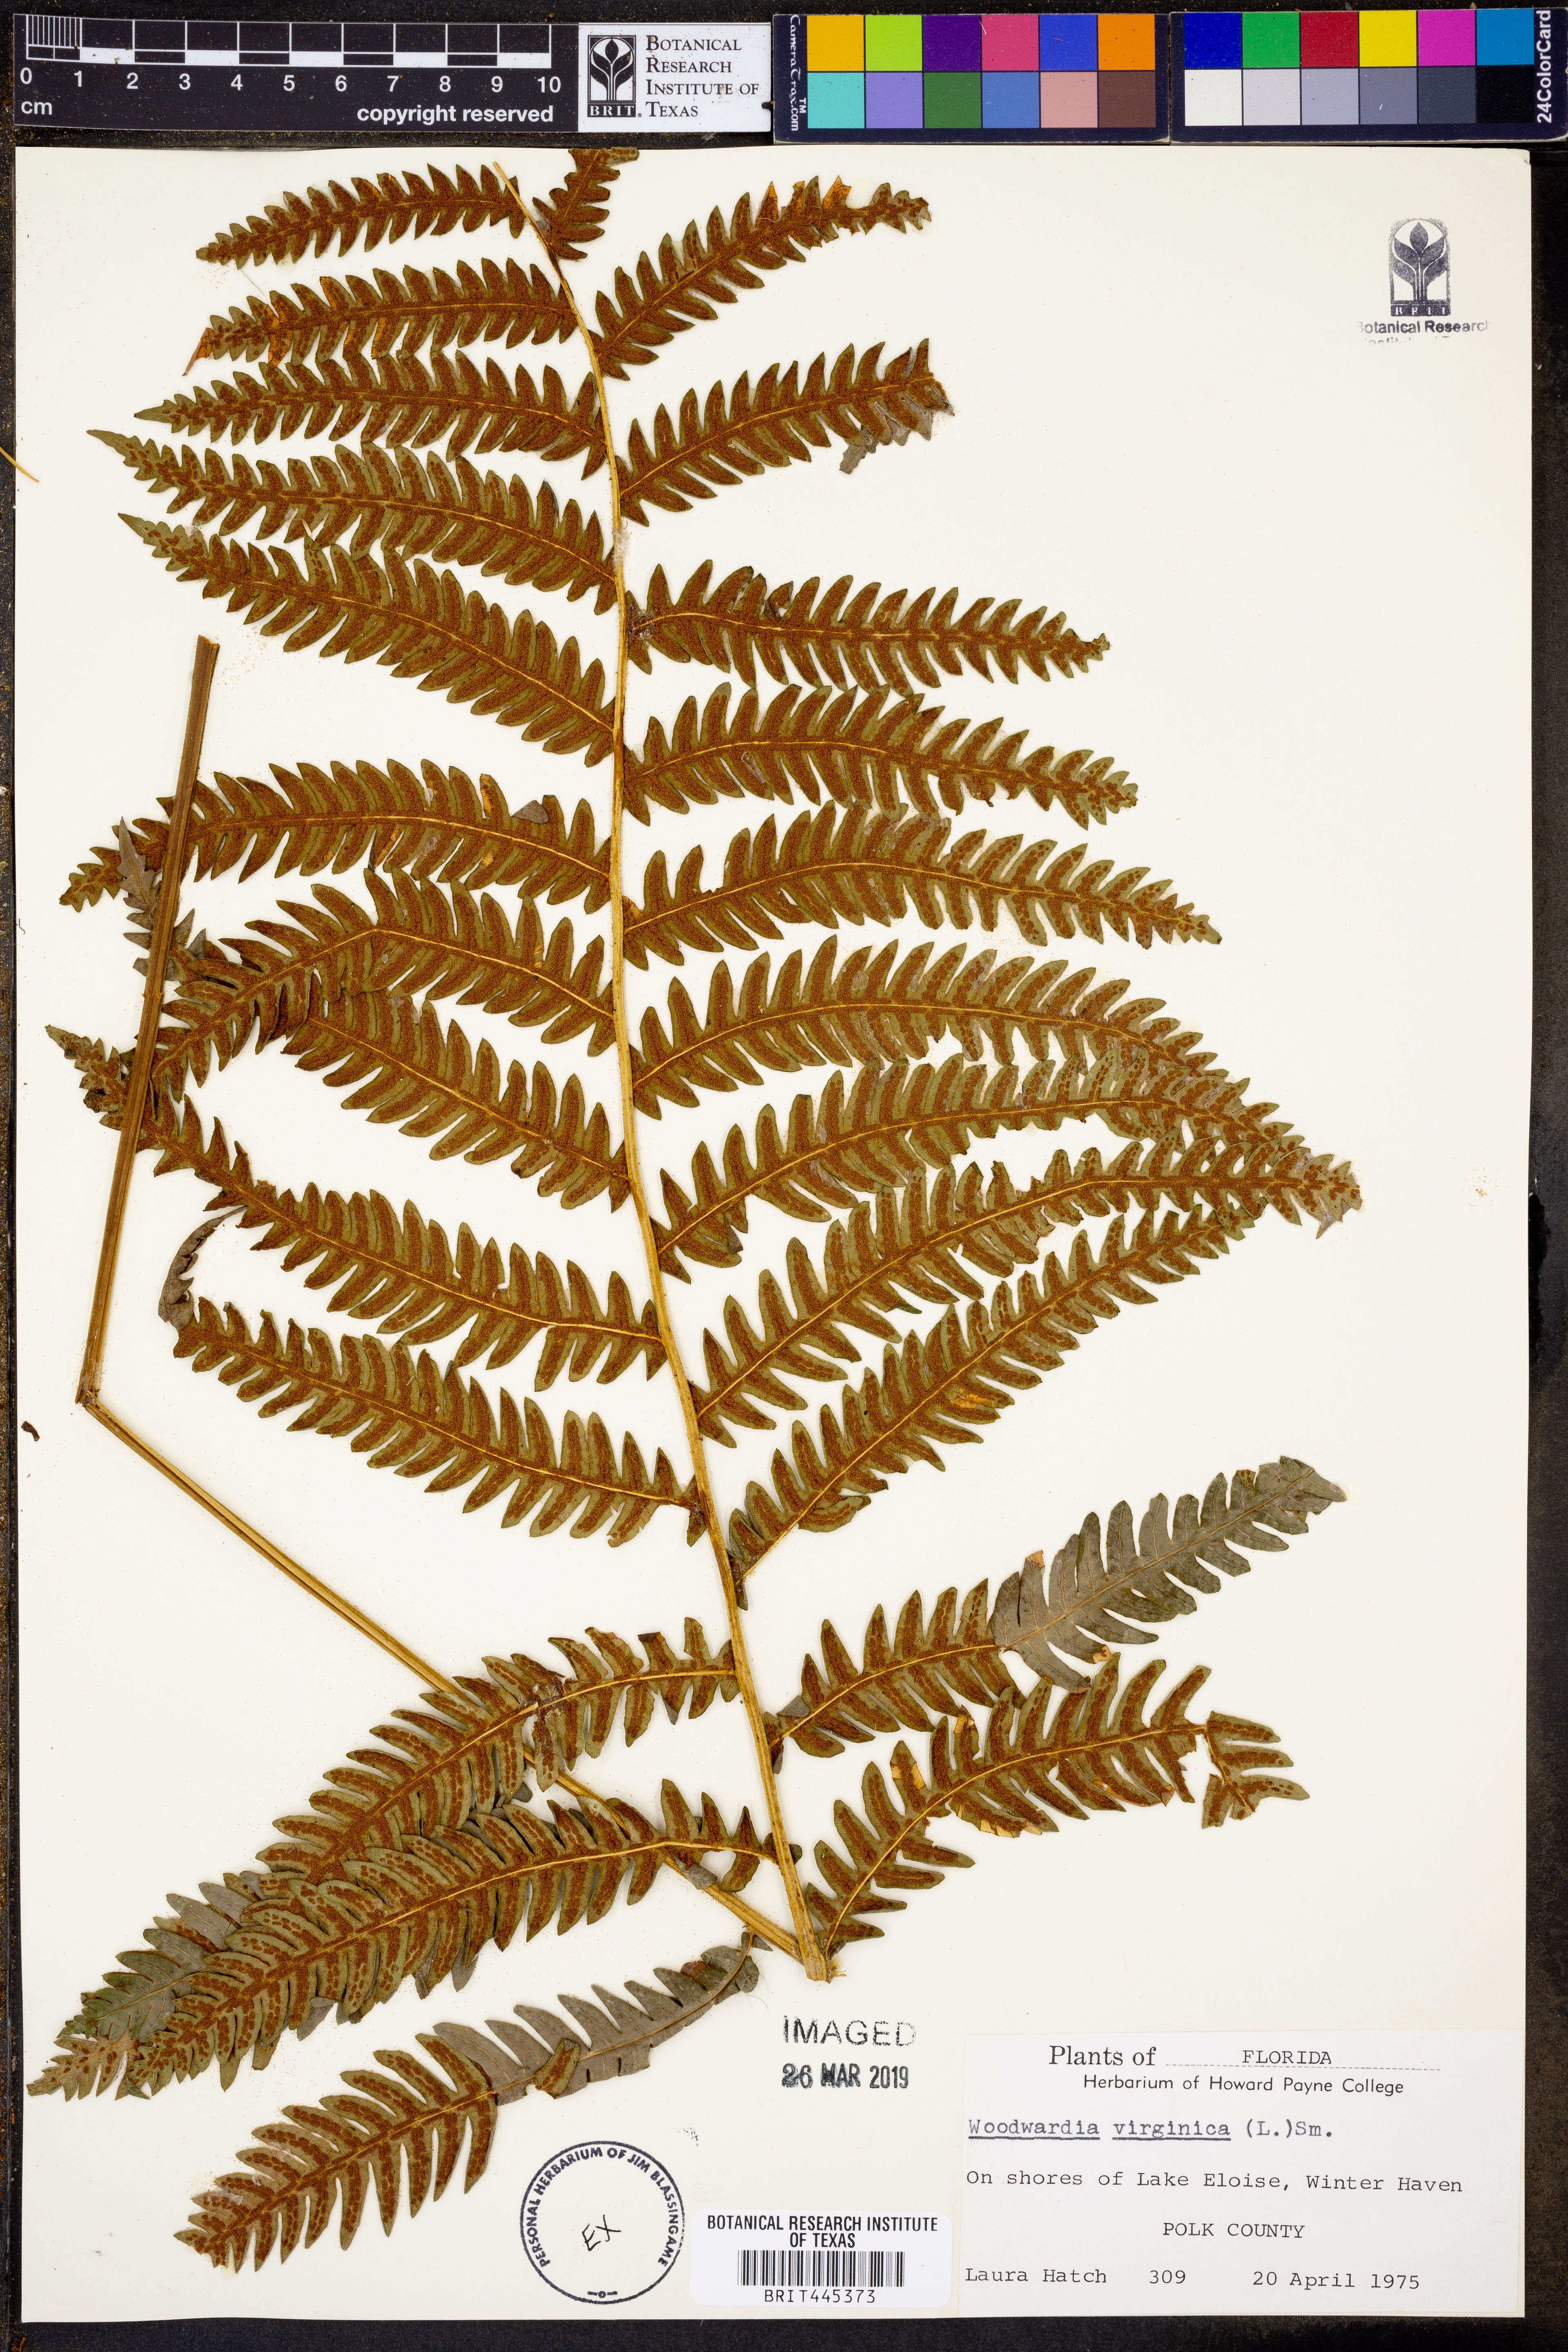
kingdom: Plantae
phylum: Tracheophyta
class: Polypodiopsida
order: Polypodiales
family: Blechnaceae
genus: Anchistea
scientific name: Anchistea virginica
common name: Virginia chain fern
